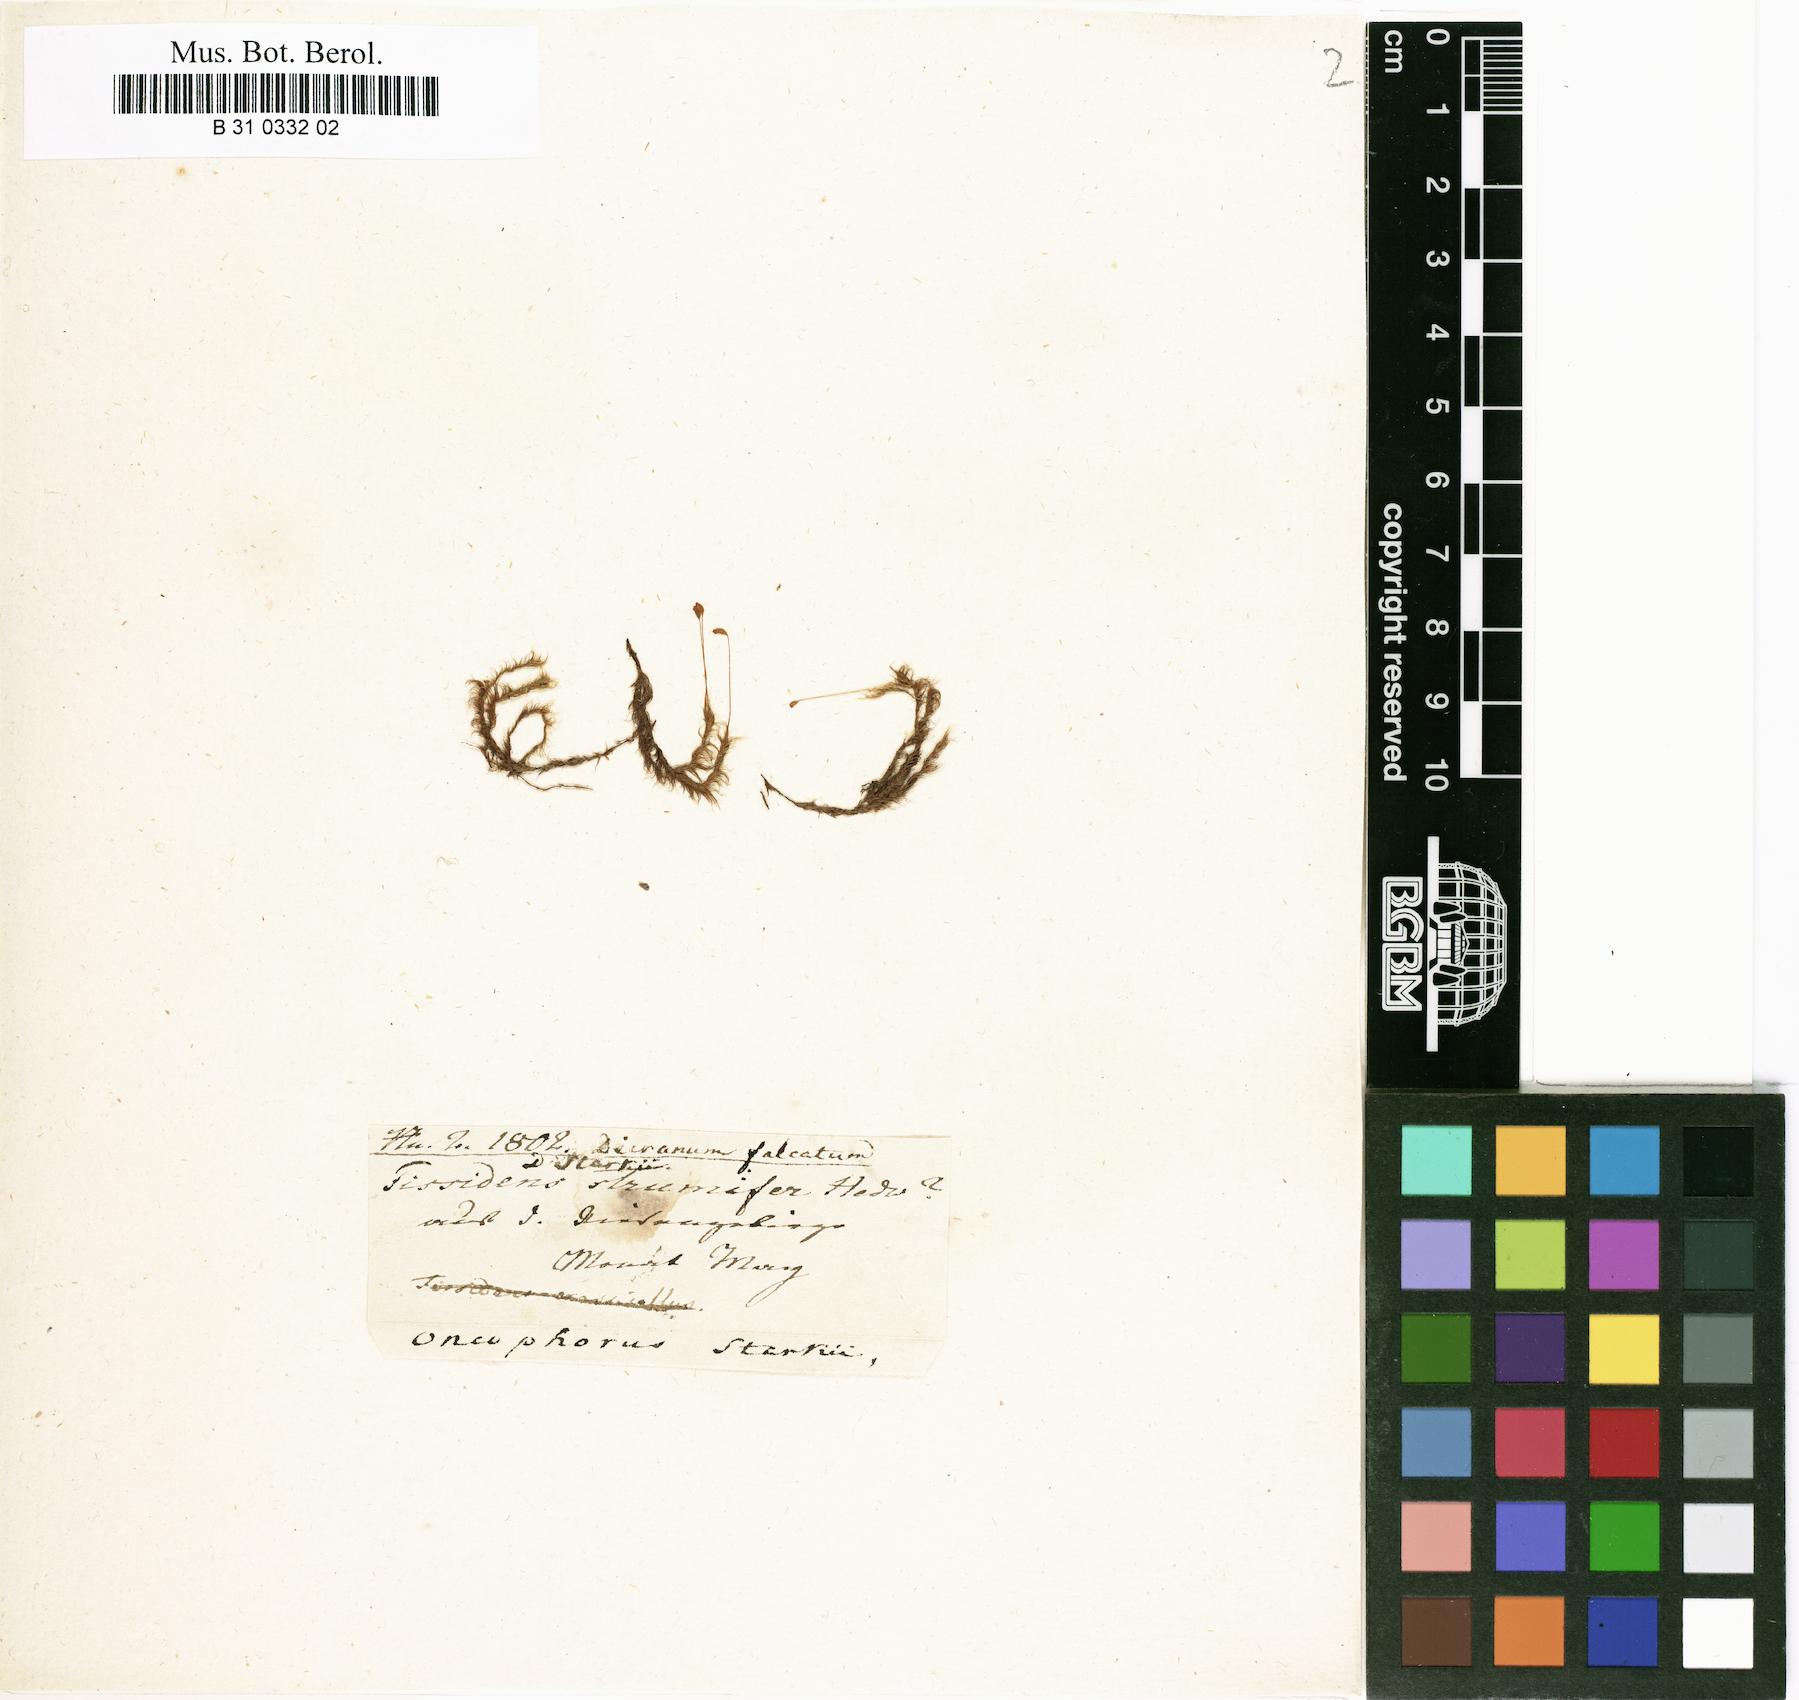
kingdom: Plantae
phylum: Bryophyta
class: Bryopsida
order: Dicranales
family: Rhabdoweisiaceae
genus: Arctoa
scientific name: Arctoa starkei
